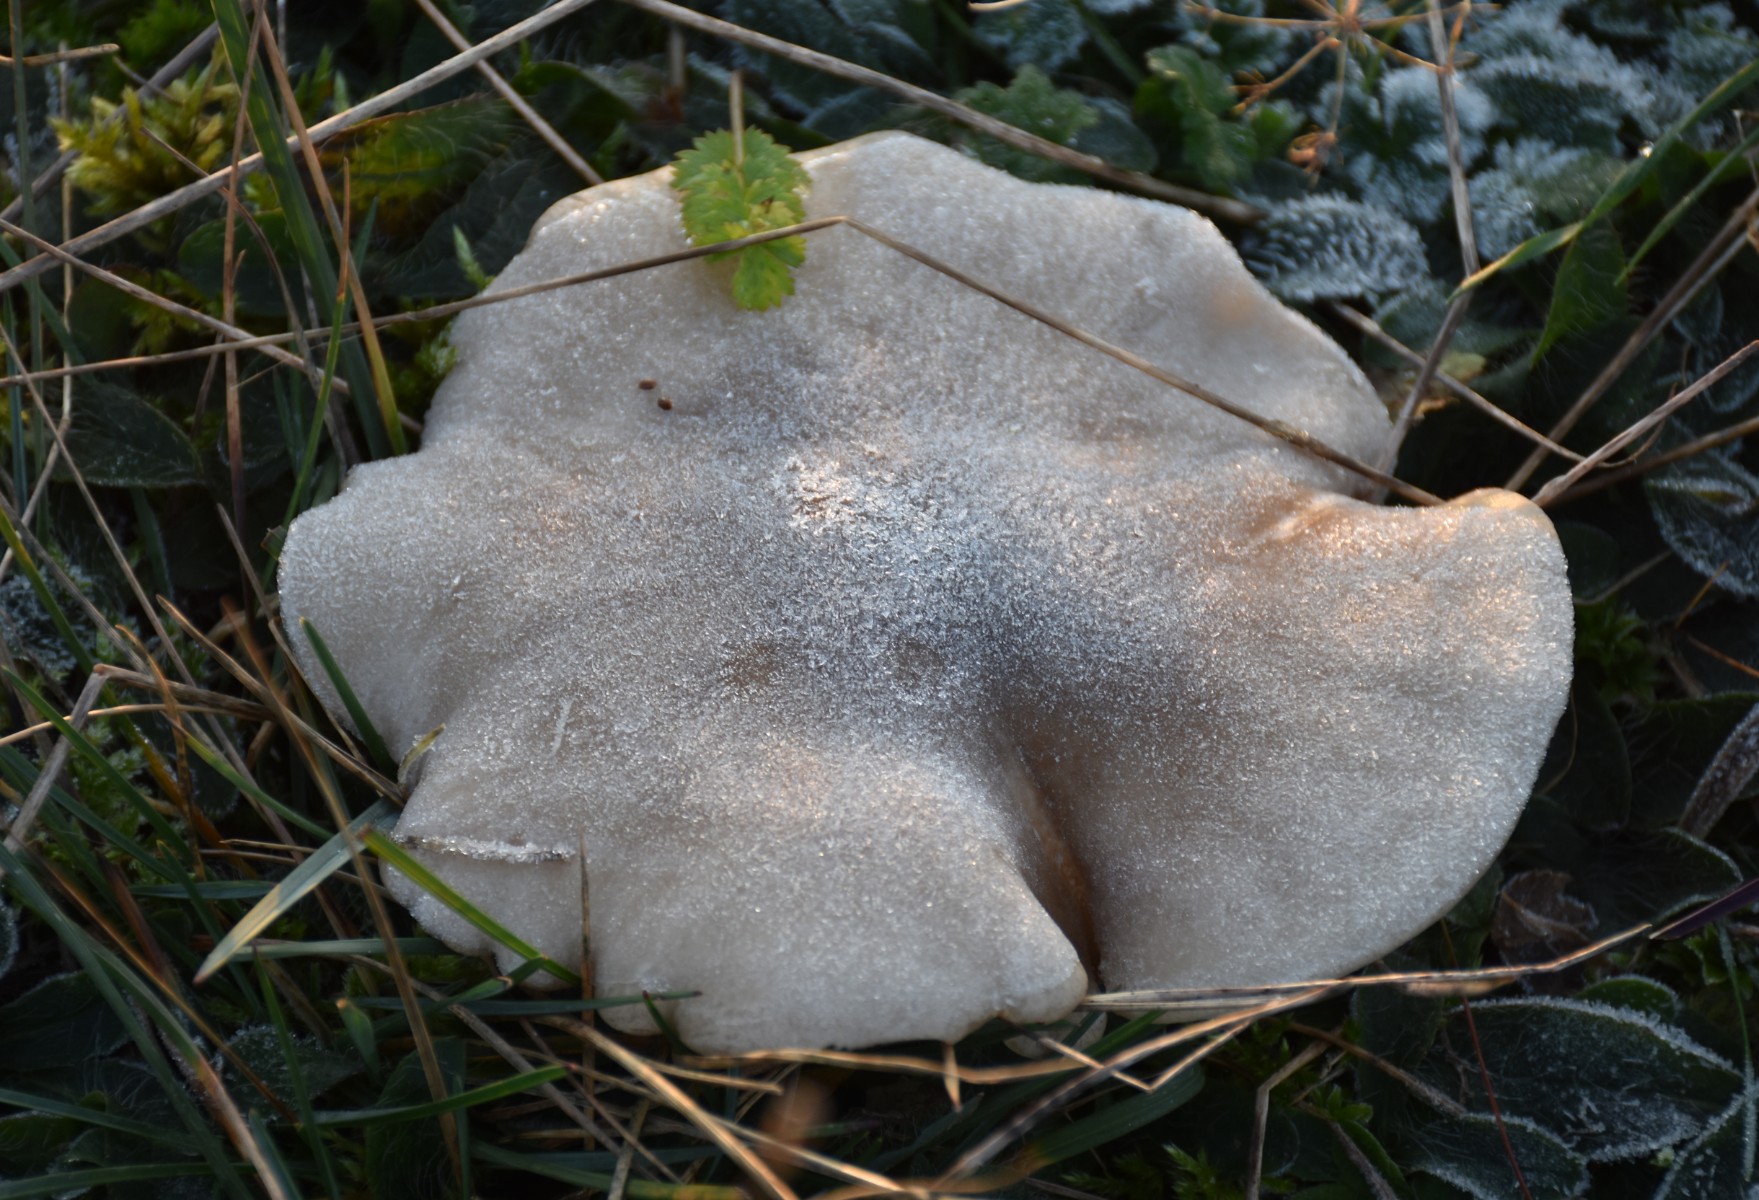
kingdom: Fungi
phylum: Basidiomycota
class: Agaricomycetes
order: Agaricales
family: Tricholomataceae
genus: Clitocybe
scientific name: Clitocybe nebularis
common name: tåge-tragthat
